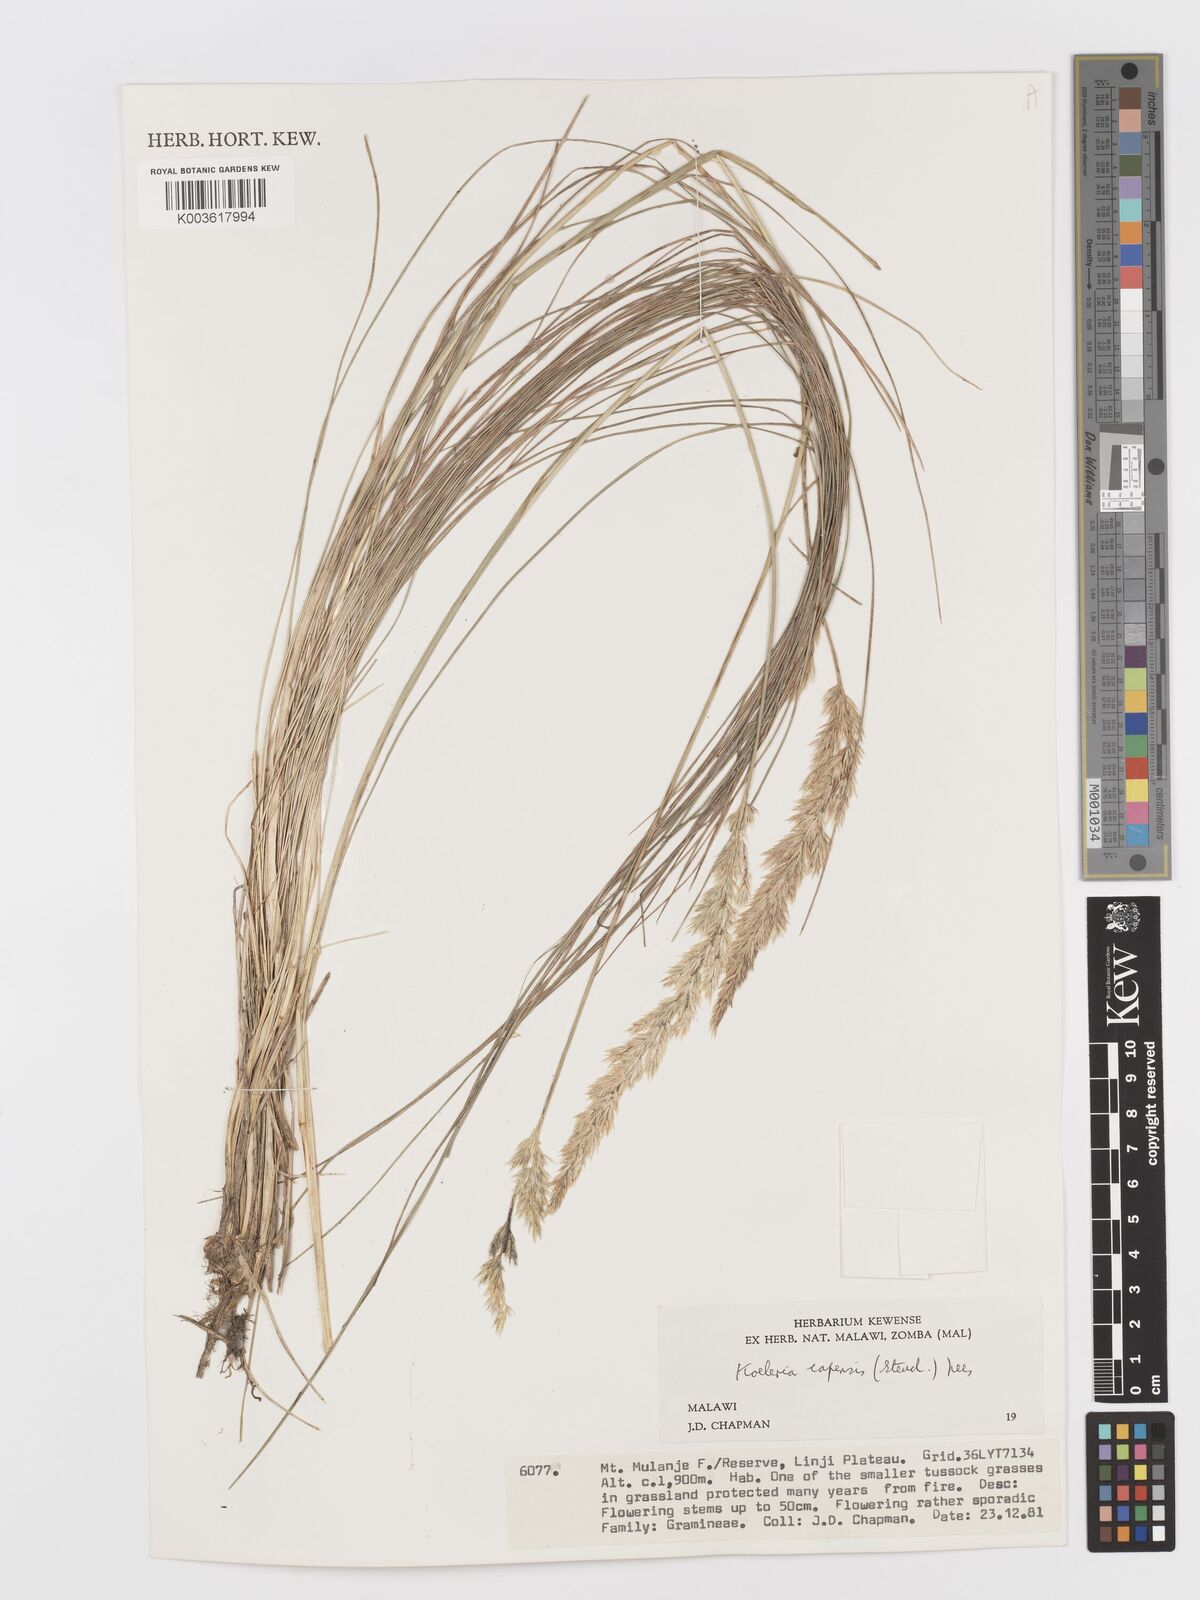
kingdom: Plantae
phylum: Tracheophyta
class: Liliopsida
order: Poales
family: Poaceae
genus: Koeleria
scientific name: Koeleria capensis
